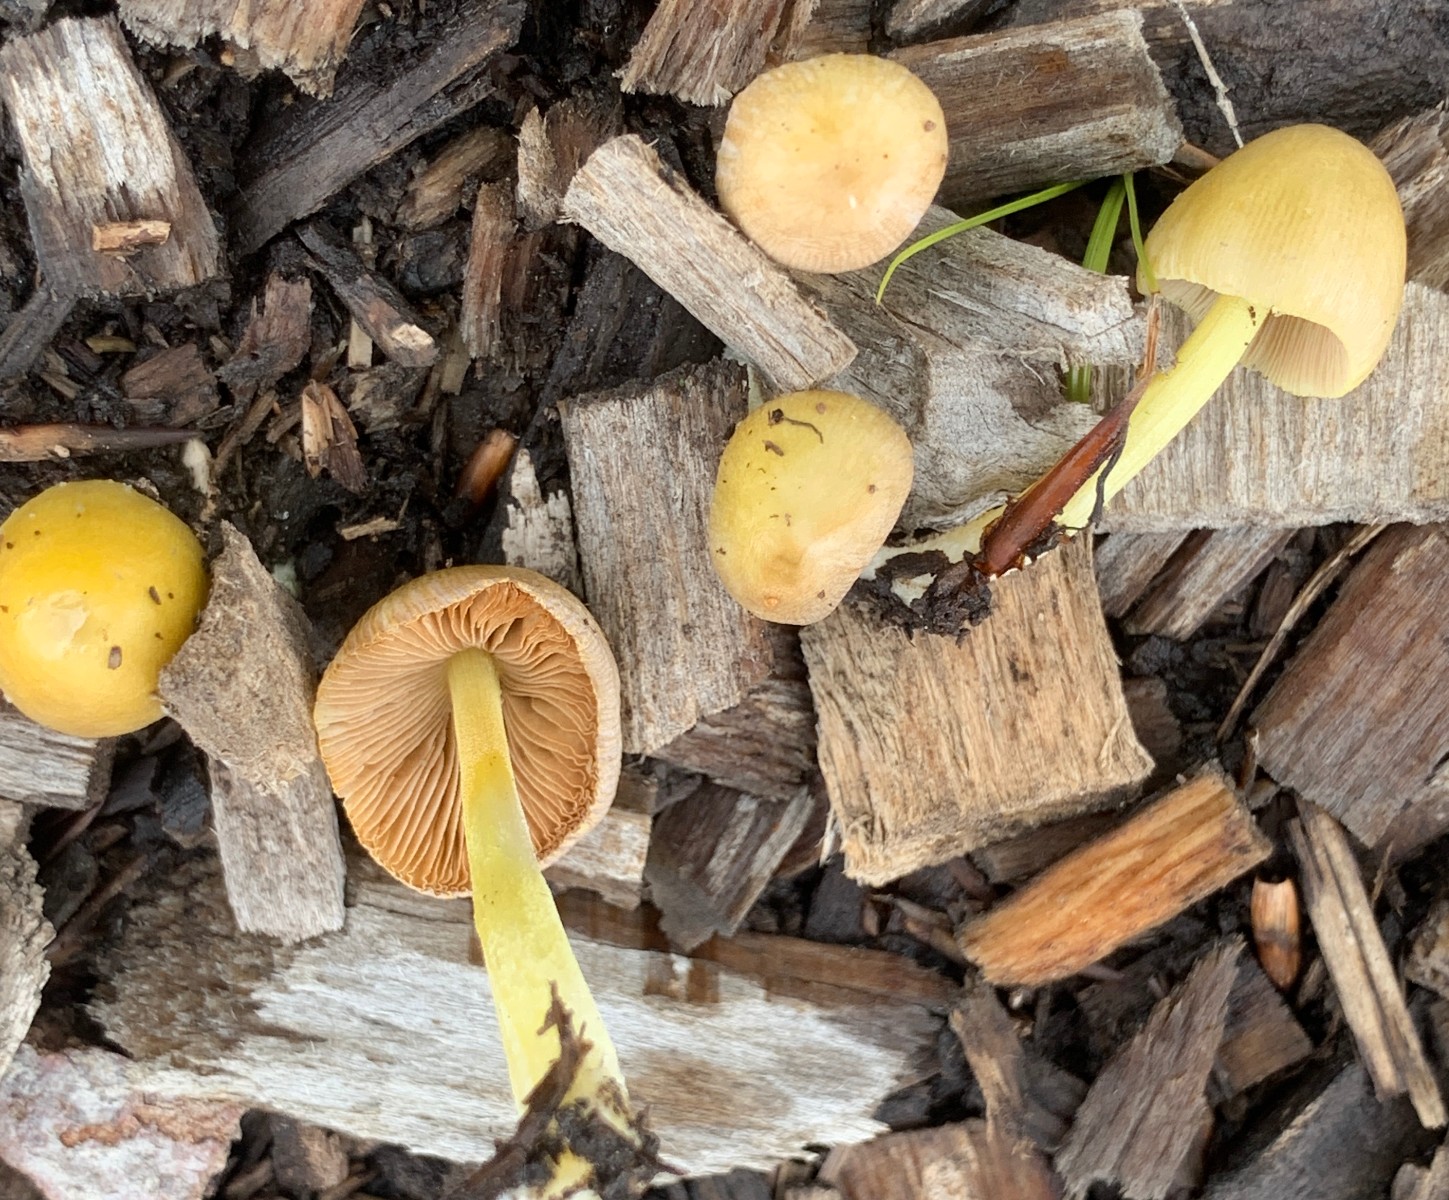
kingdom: Fungi
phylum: Basidiomycota
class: Agaricomycetes
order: Agaricales
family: Bolbitiaceae
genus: Bolbitius
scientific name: Bolbitius titubans
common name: almindelig gulhat
